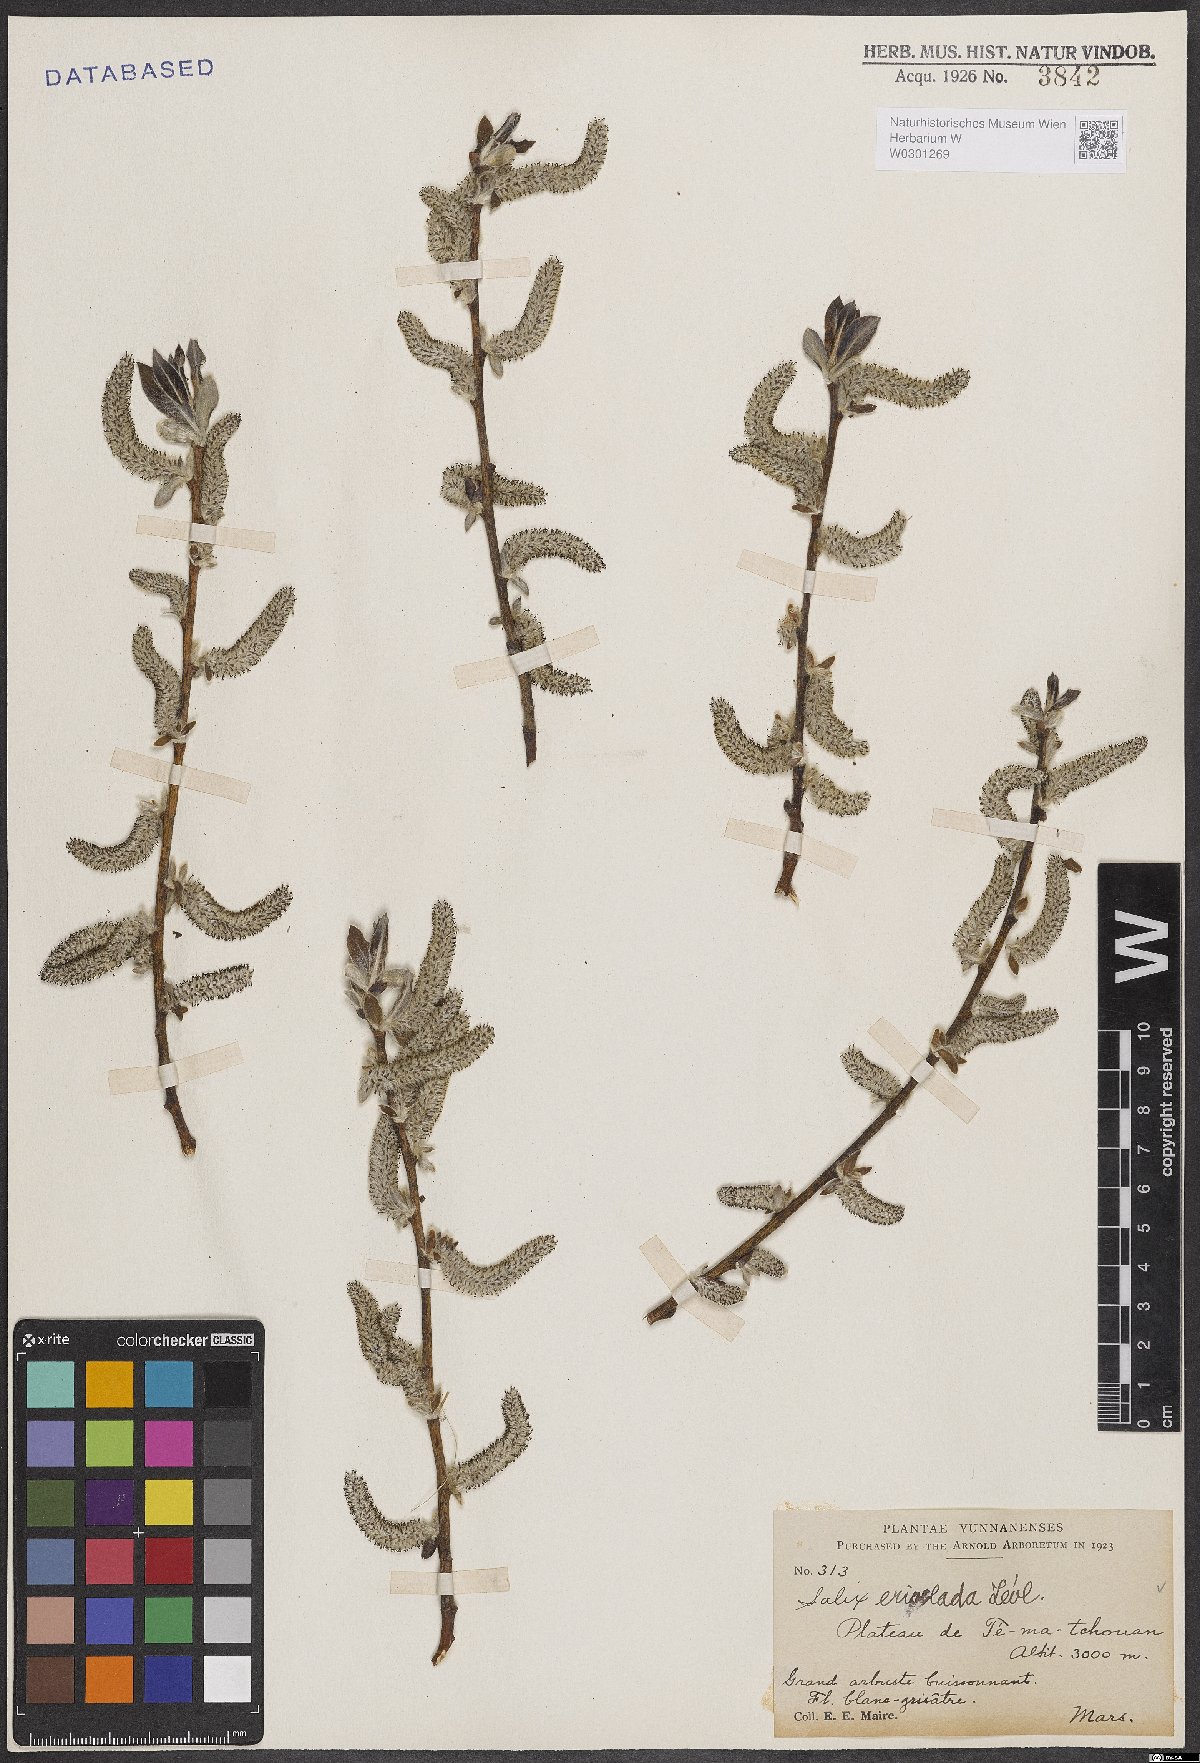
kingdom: Plantae
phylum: Tracheophyta
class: Magnoliopsida
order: Malpighiales
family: Salicaceae
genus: Salix
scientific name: Salix erioclada
